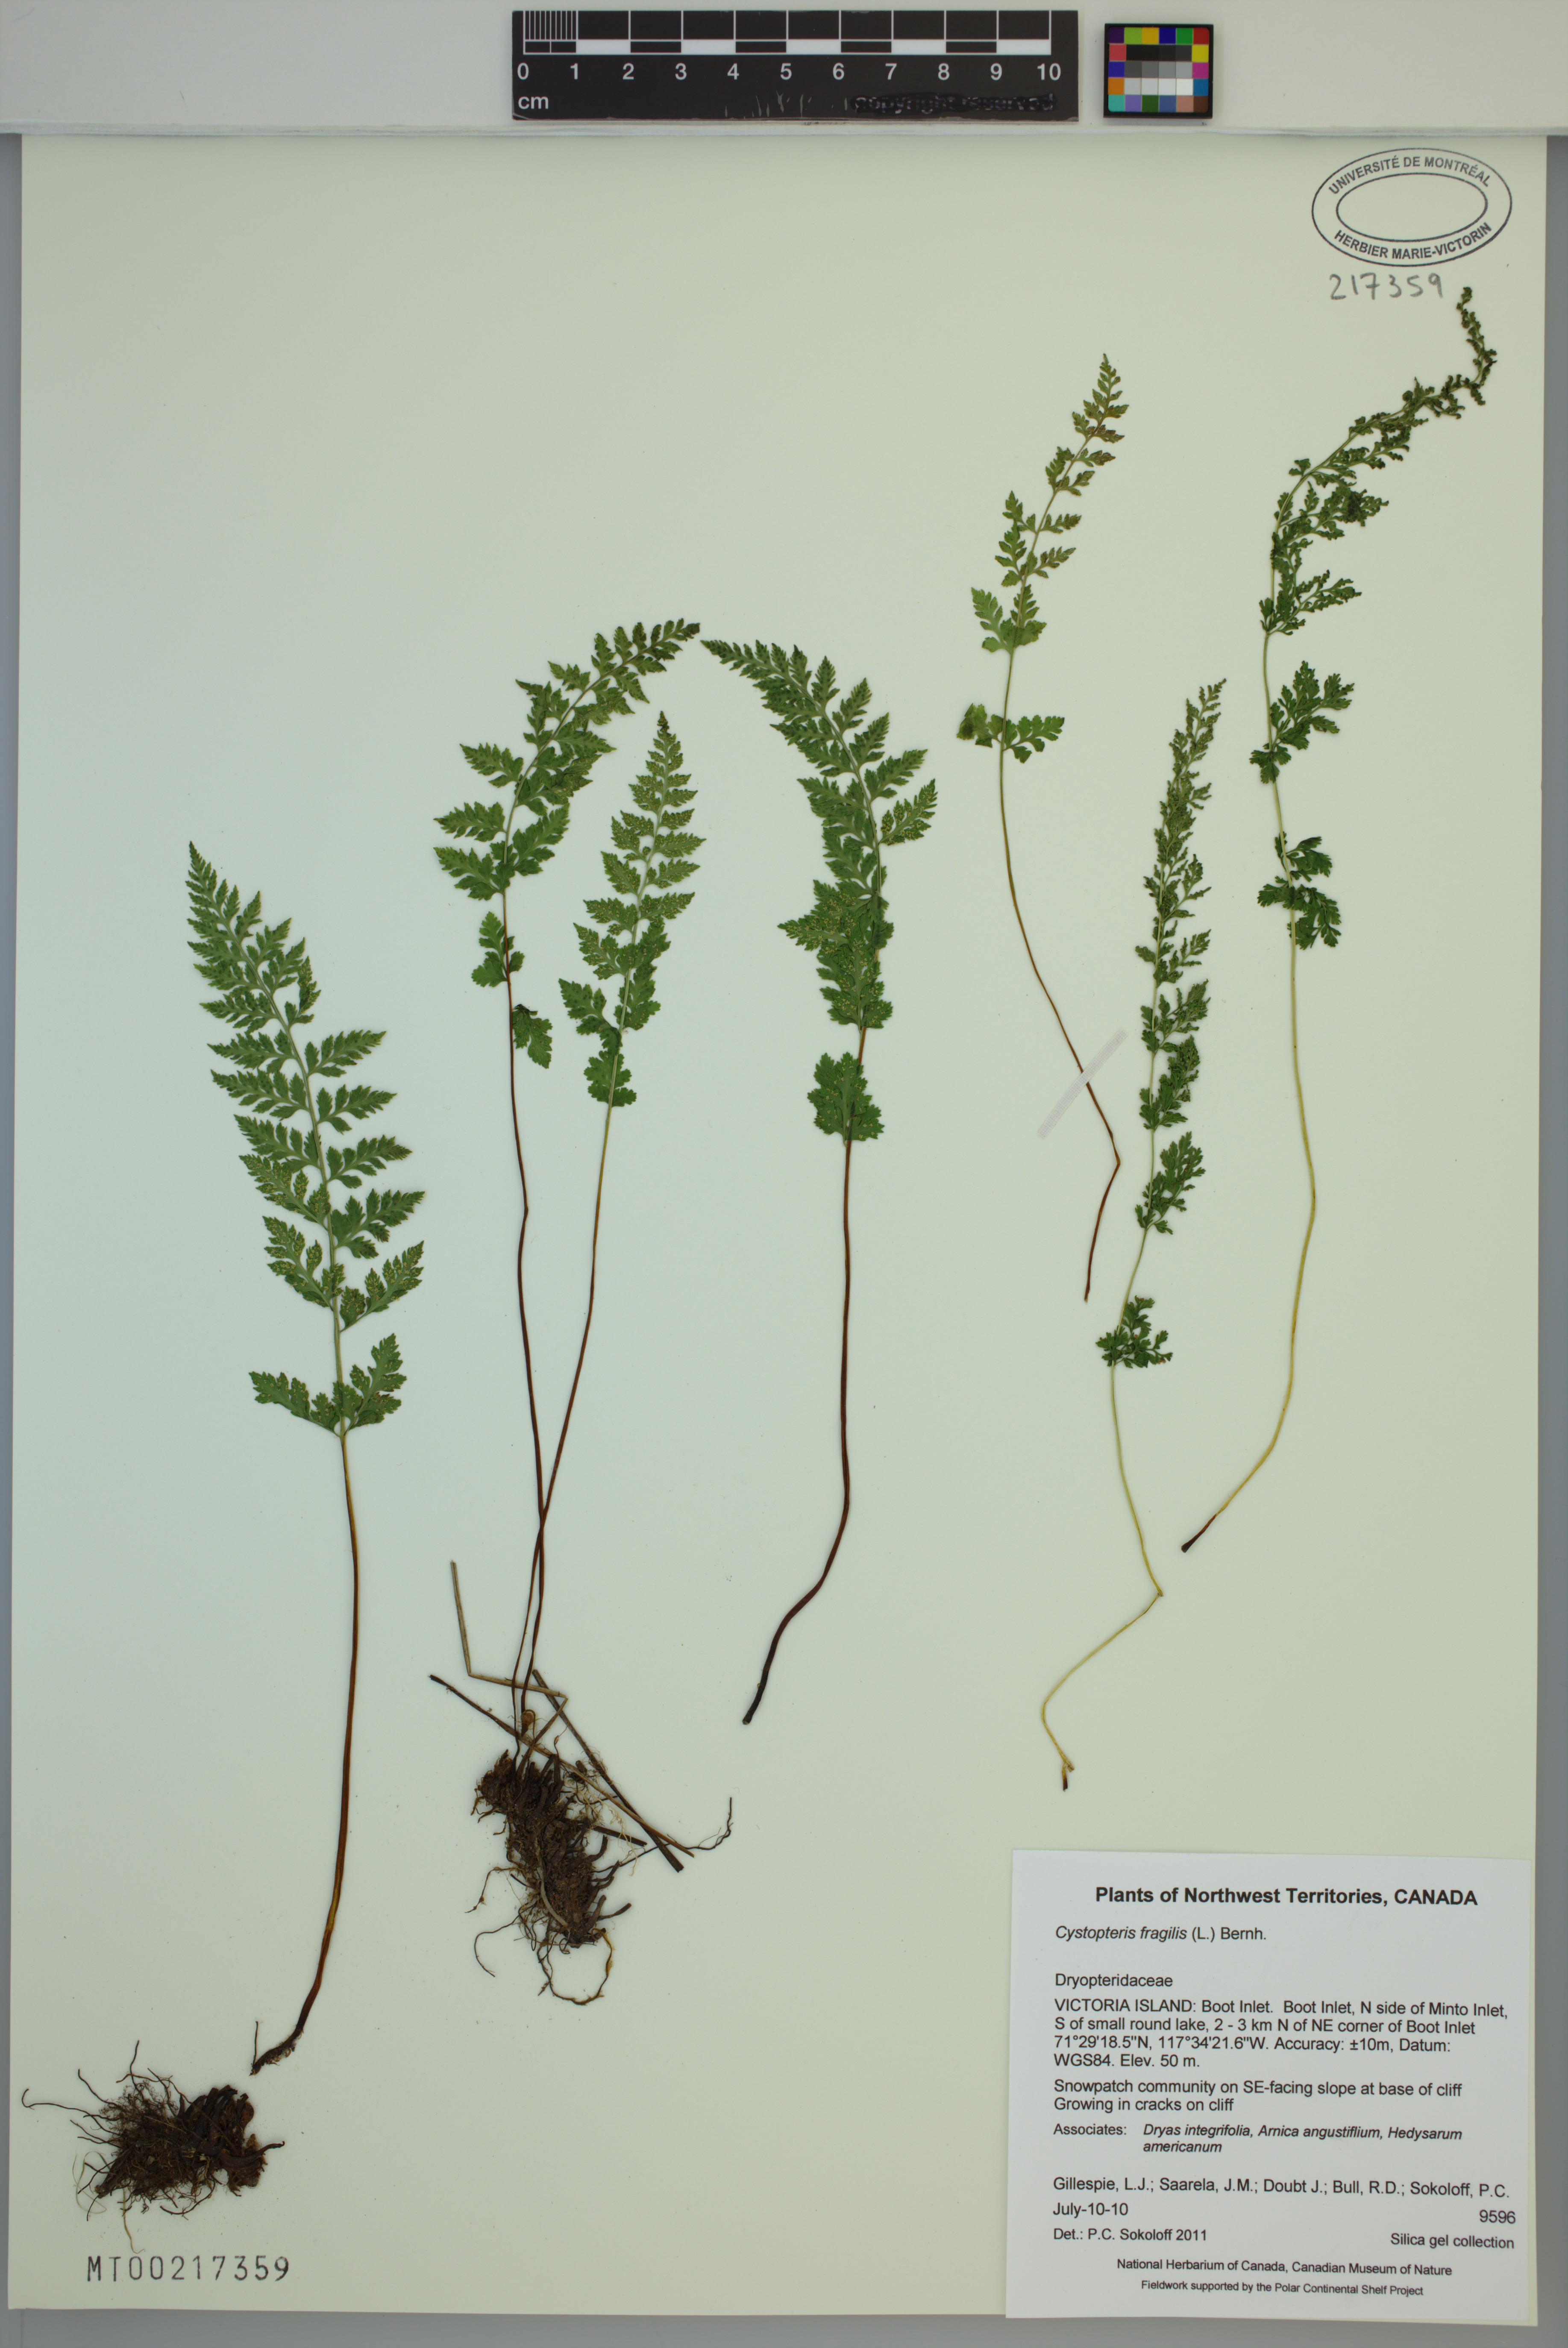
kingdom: Plantae
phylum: Tracheophyta
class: Polypodiopsida
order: Polypodiales
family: Cystopteridaceae
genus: Cystopteris
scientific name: Cystopteris fragilis
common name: Brittle bladder fern
